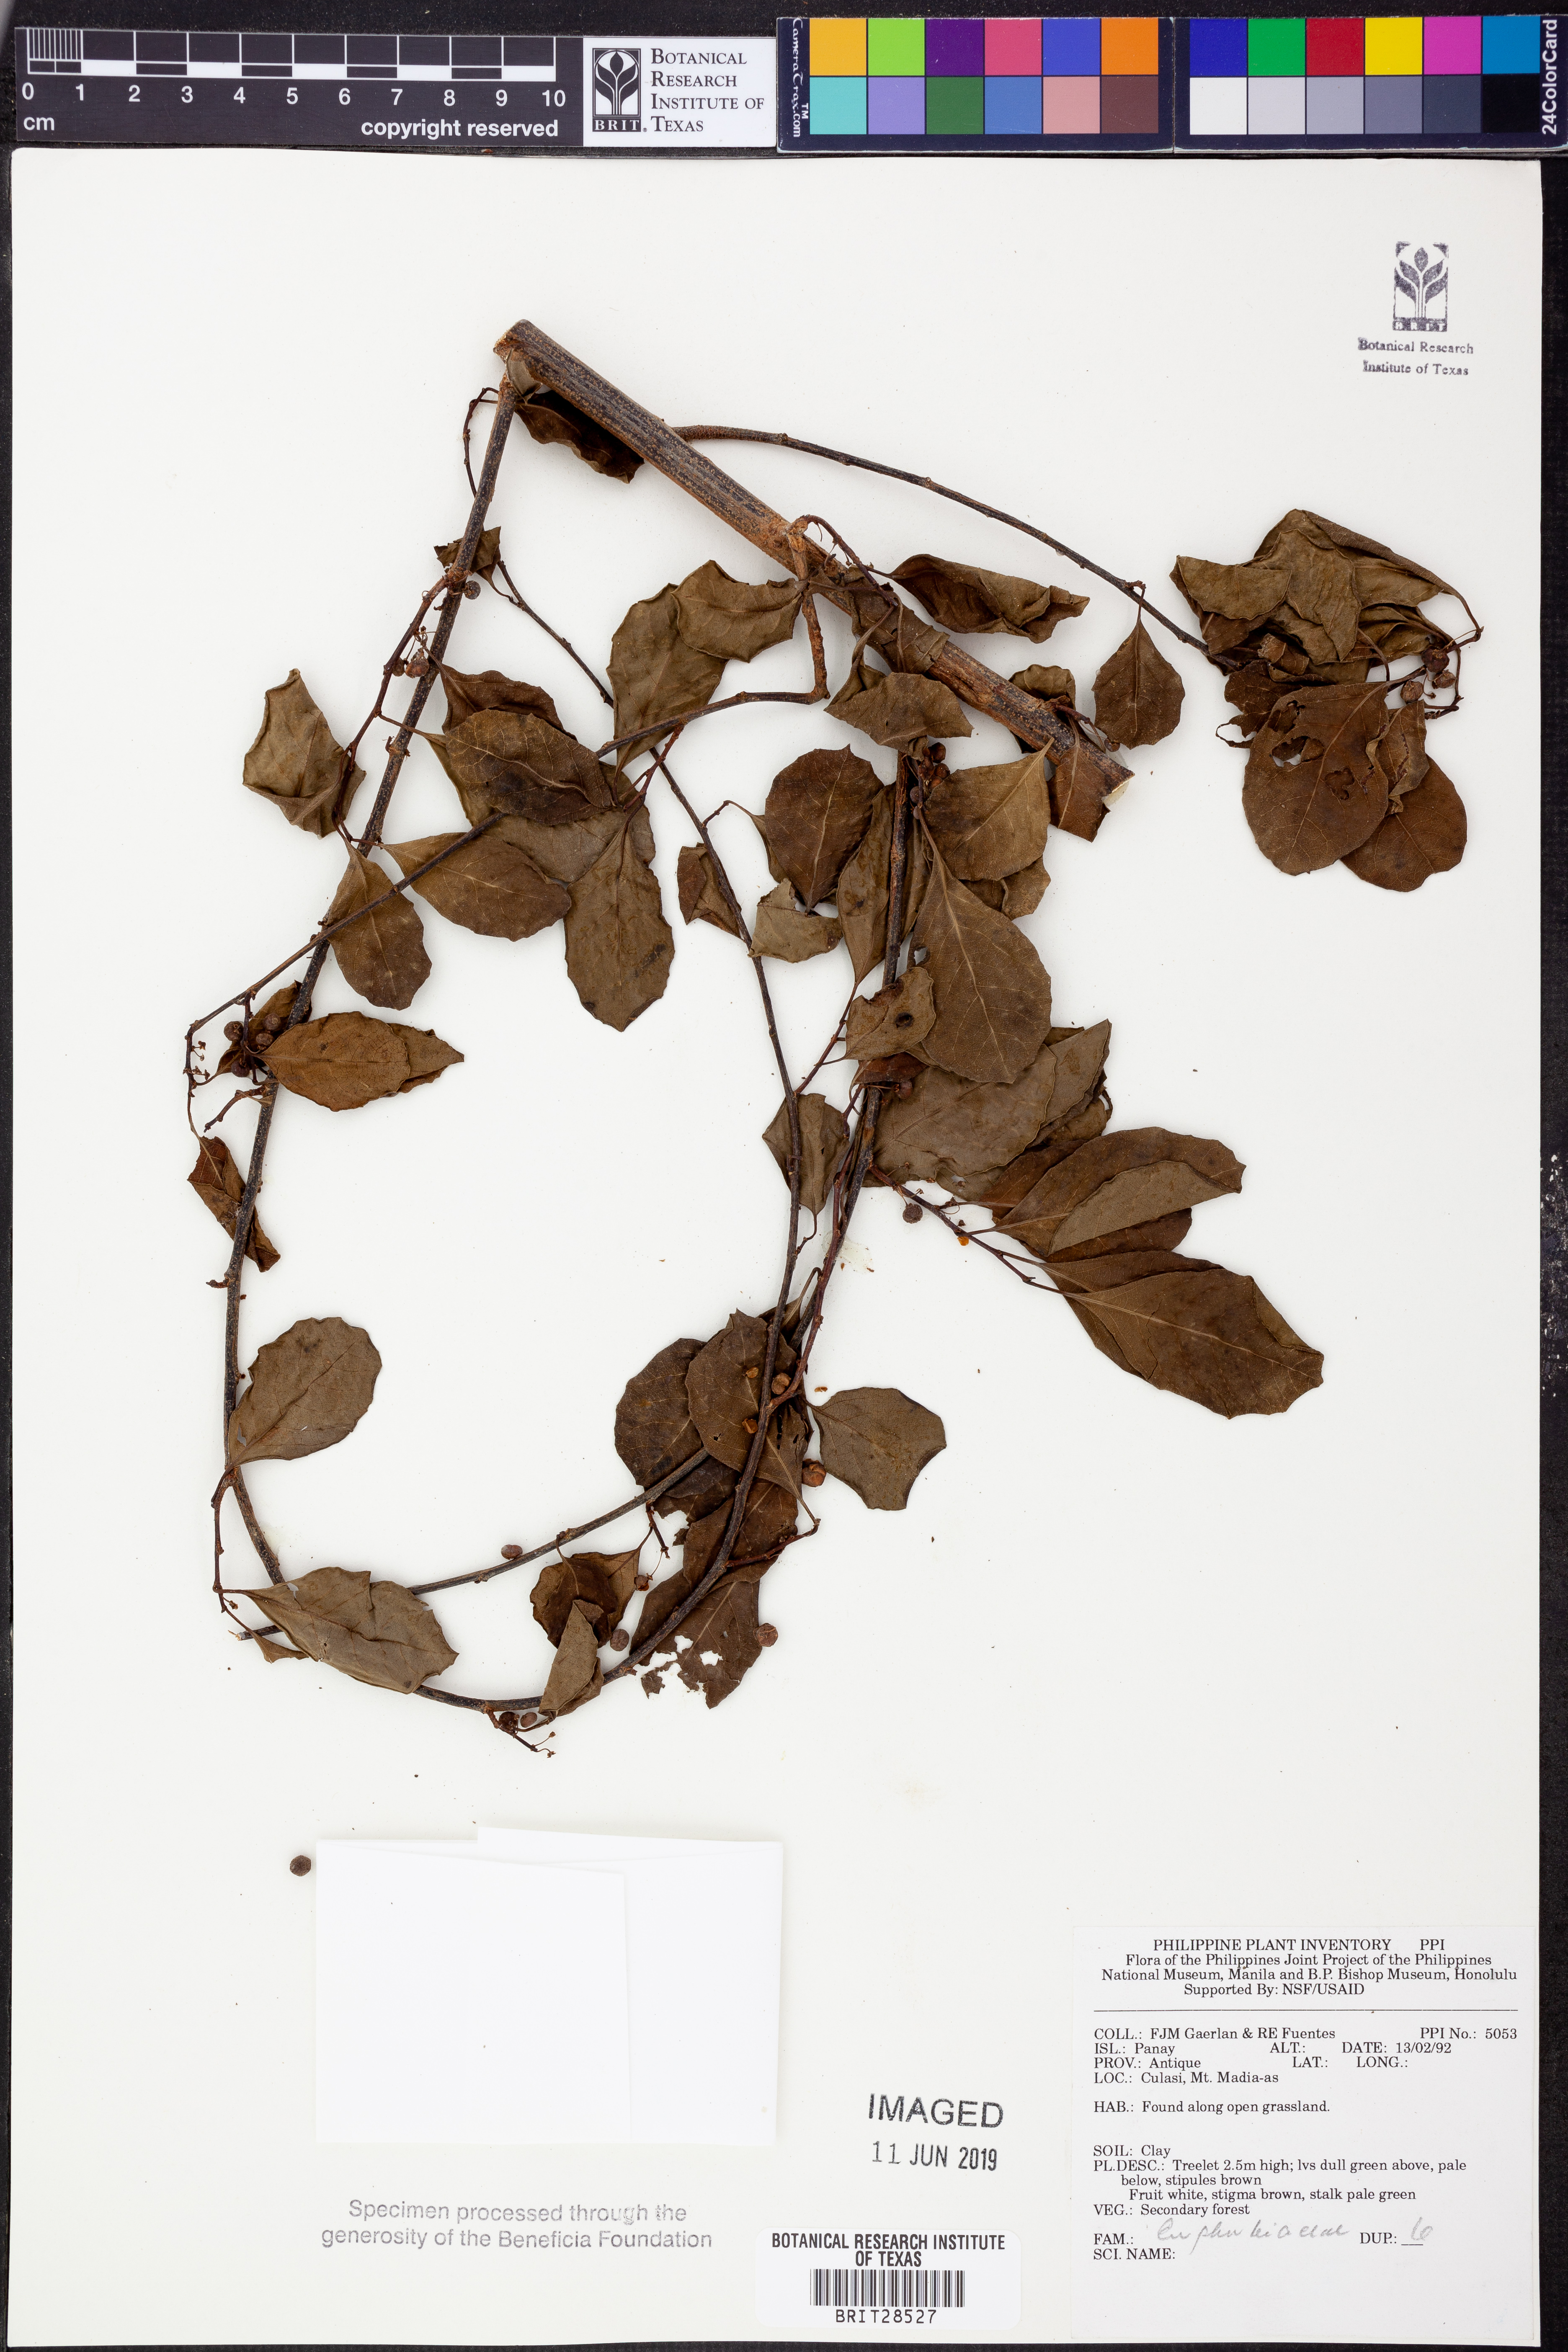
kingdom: Plantae
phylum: Tracheophyta
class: Magnoliopsida
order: Malpighiales
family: Euphorbiaceae
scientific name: Euphorbiaceae
